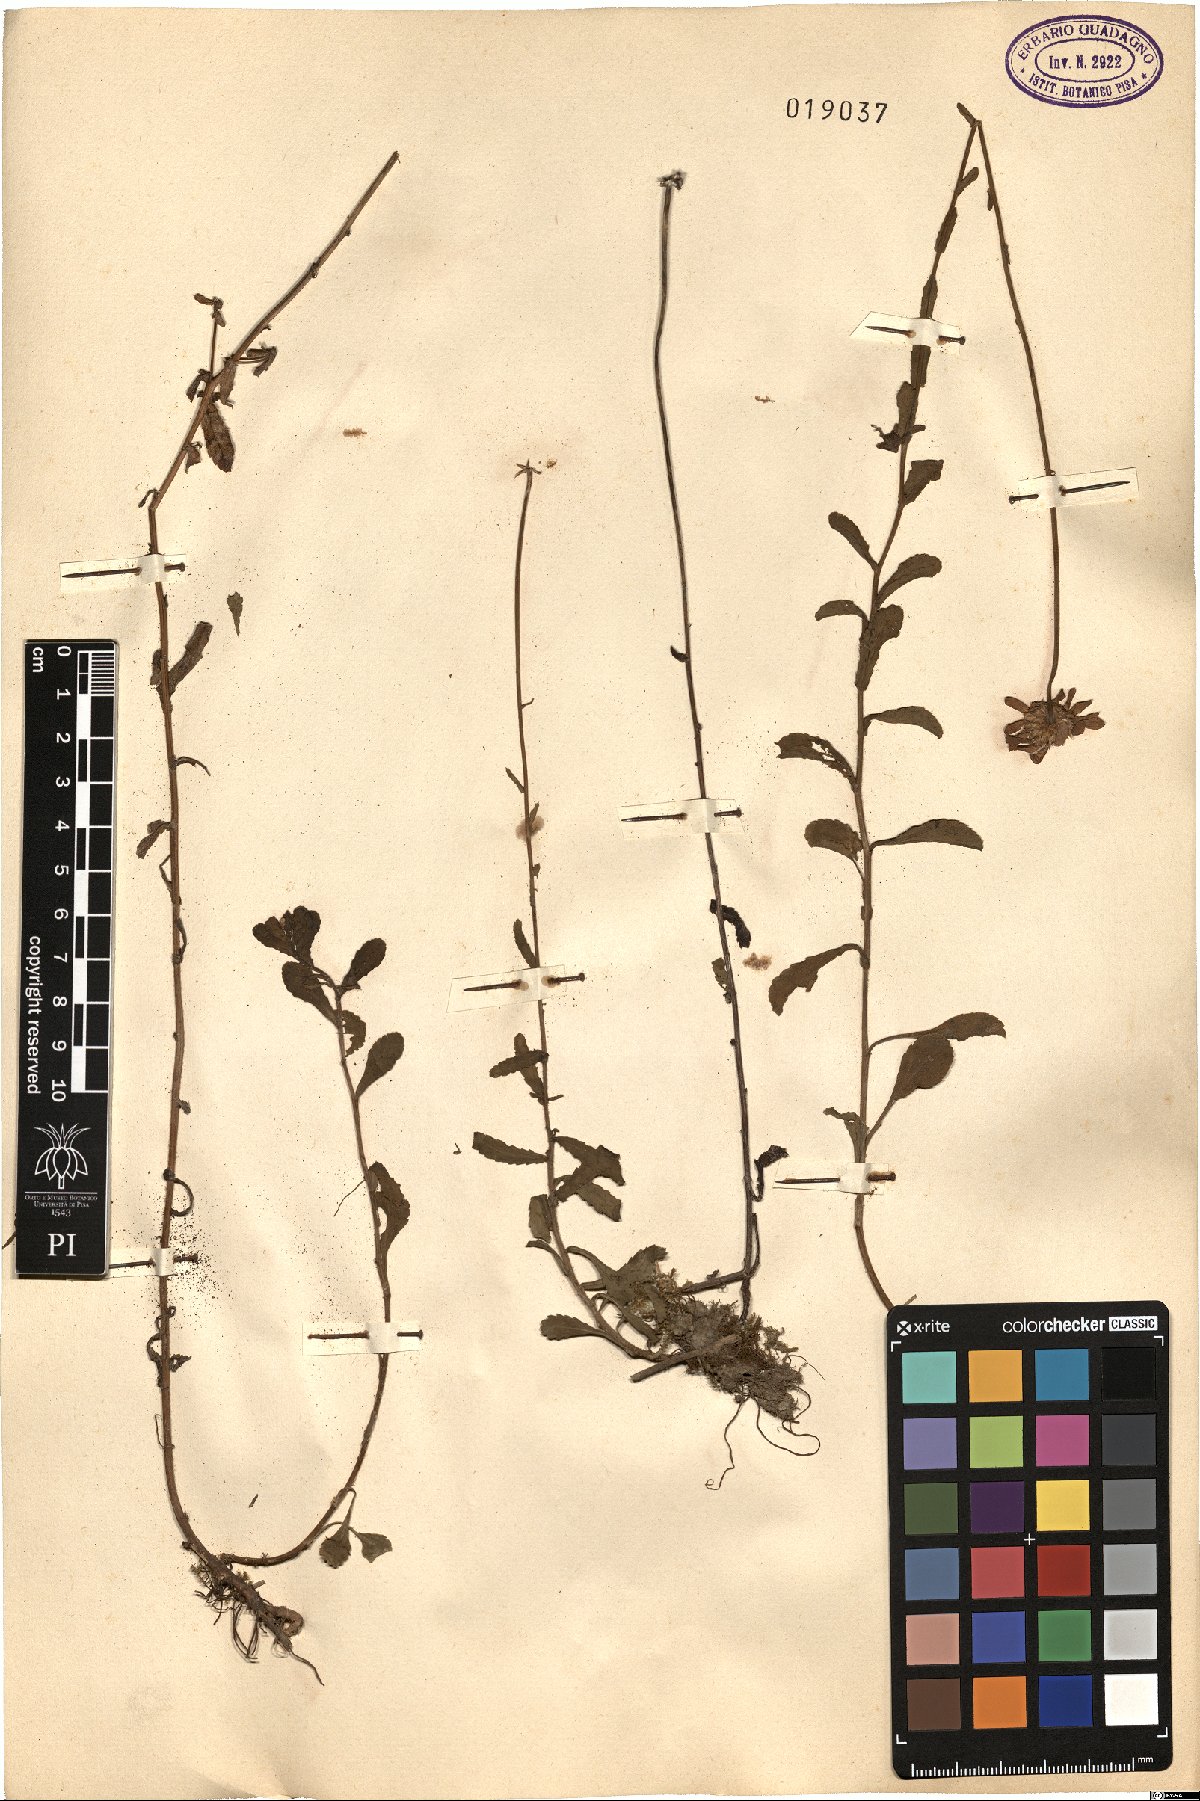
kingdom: Plantae
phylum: Tracheophyta
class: Magnoliopsida
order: Asterales
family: Asteraceae
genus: Pyrethrum
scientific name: Pyrethrum
